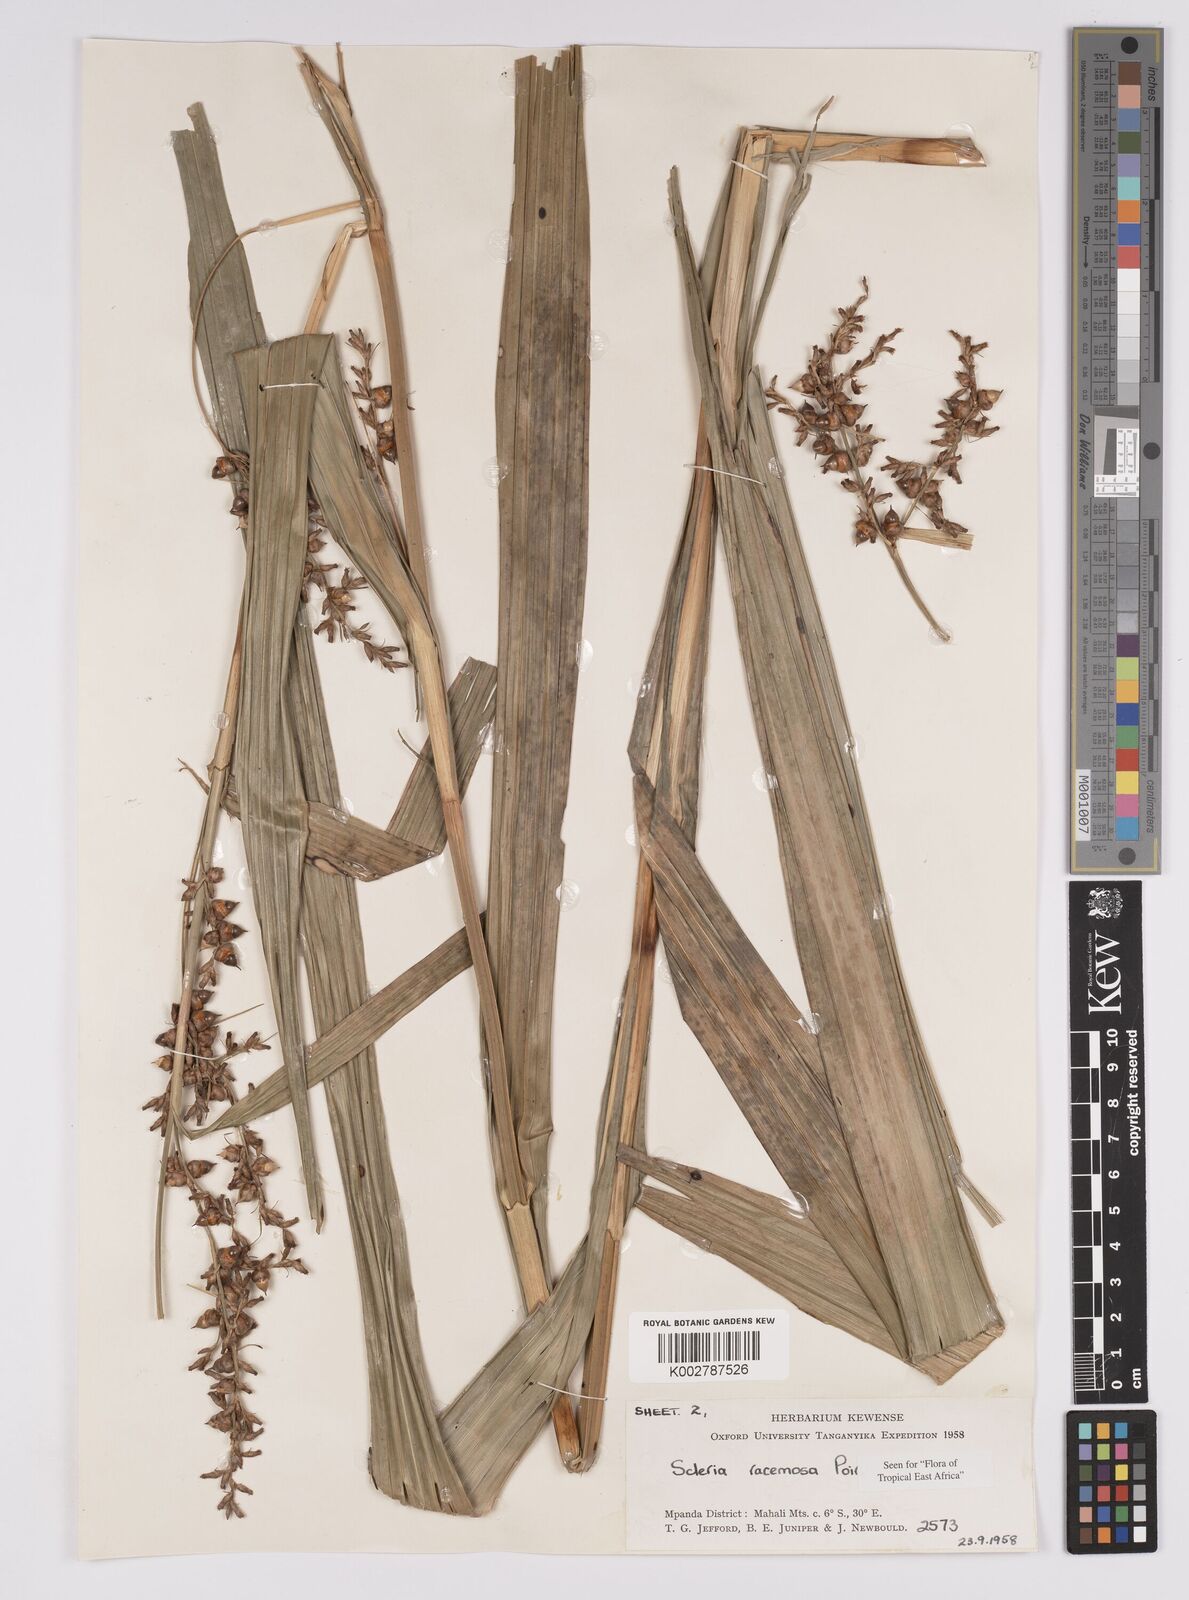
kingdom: Plantae
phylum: Tracheophyta
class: Liliopsida
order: Poales
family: Cyperaceae
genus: Scleria
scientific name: Scleria racemosa
